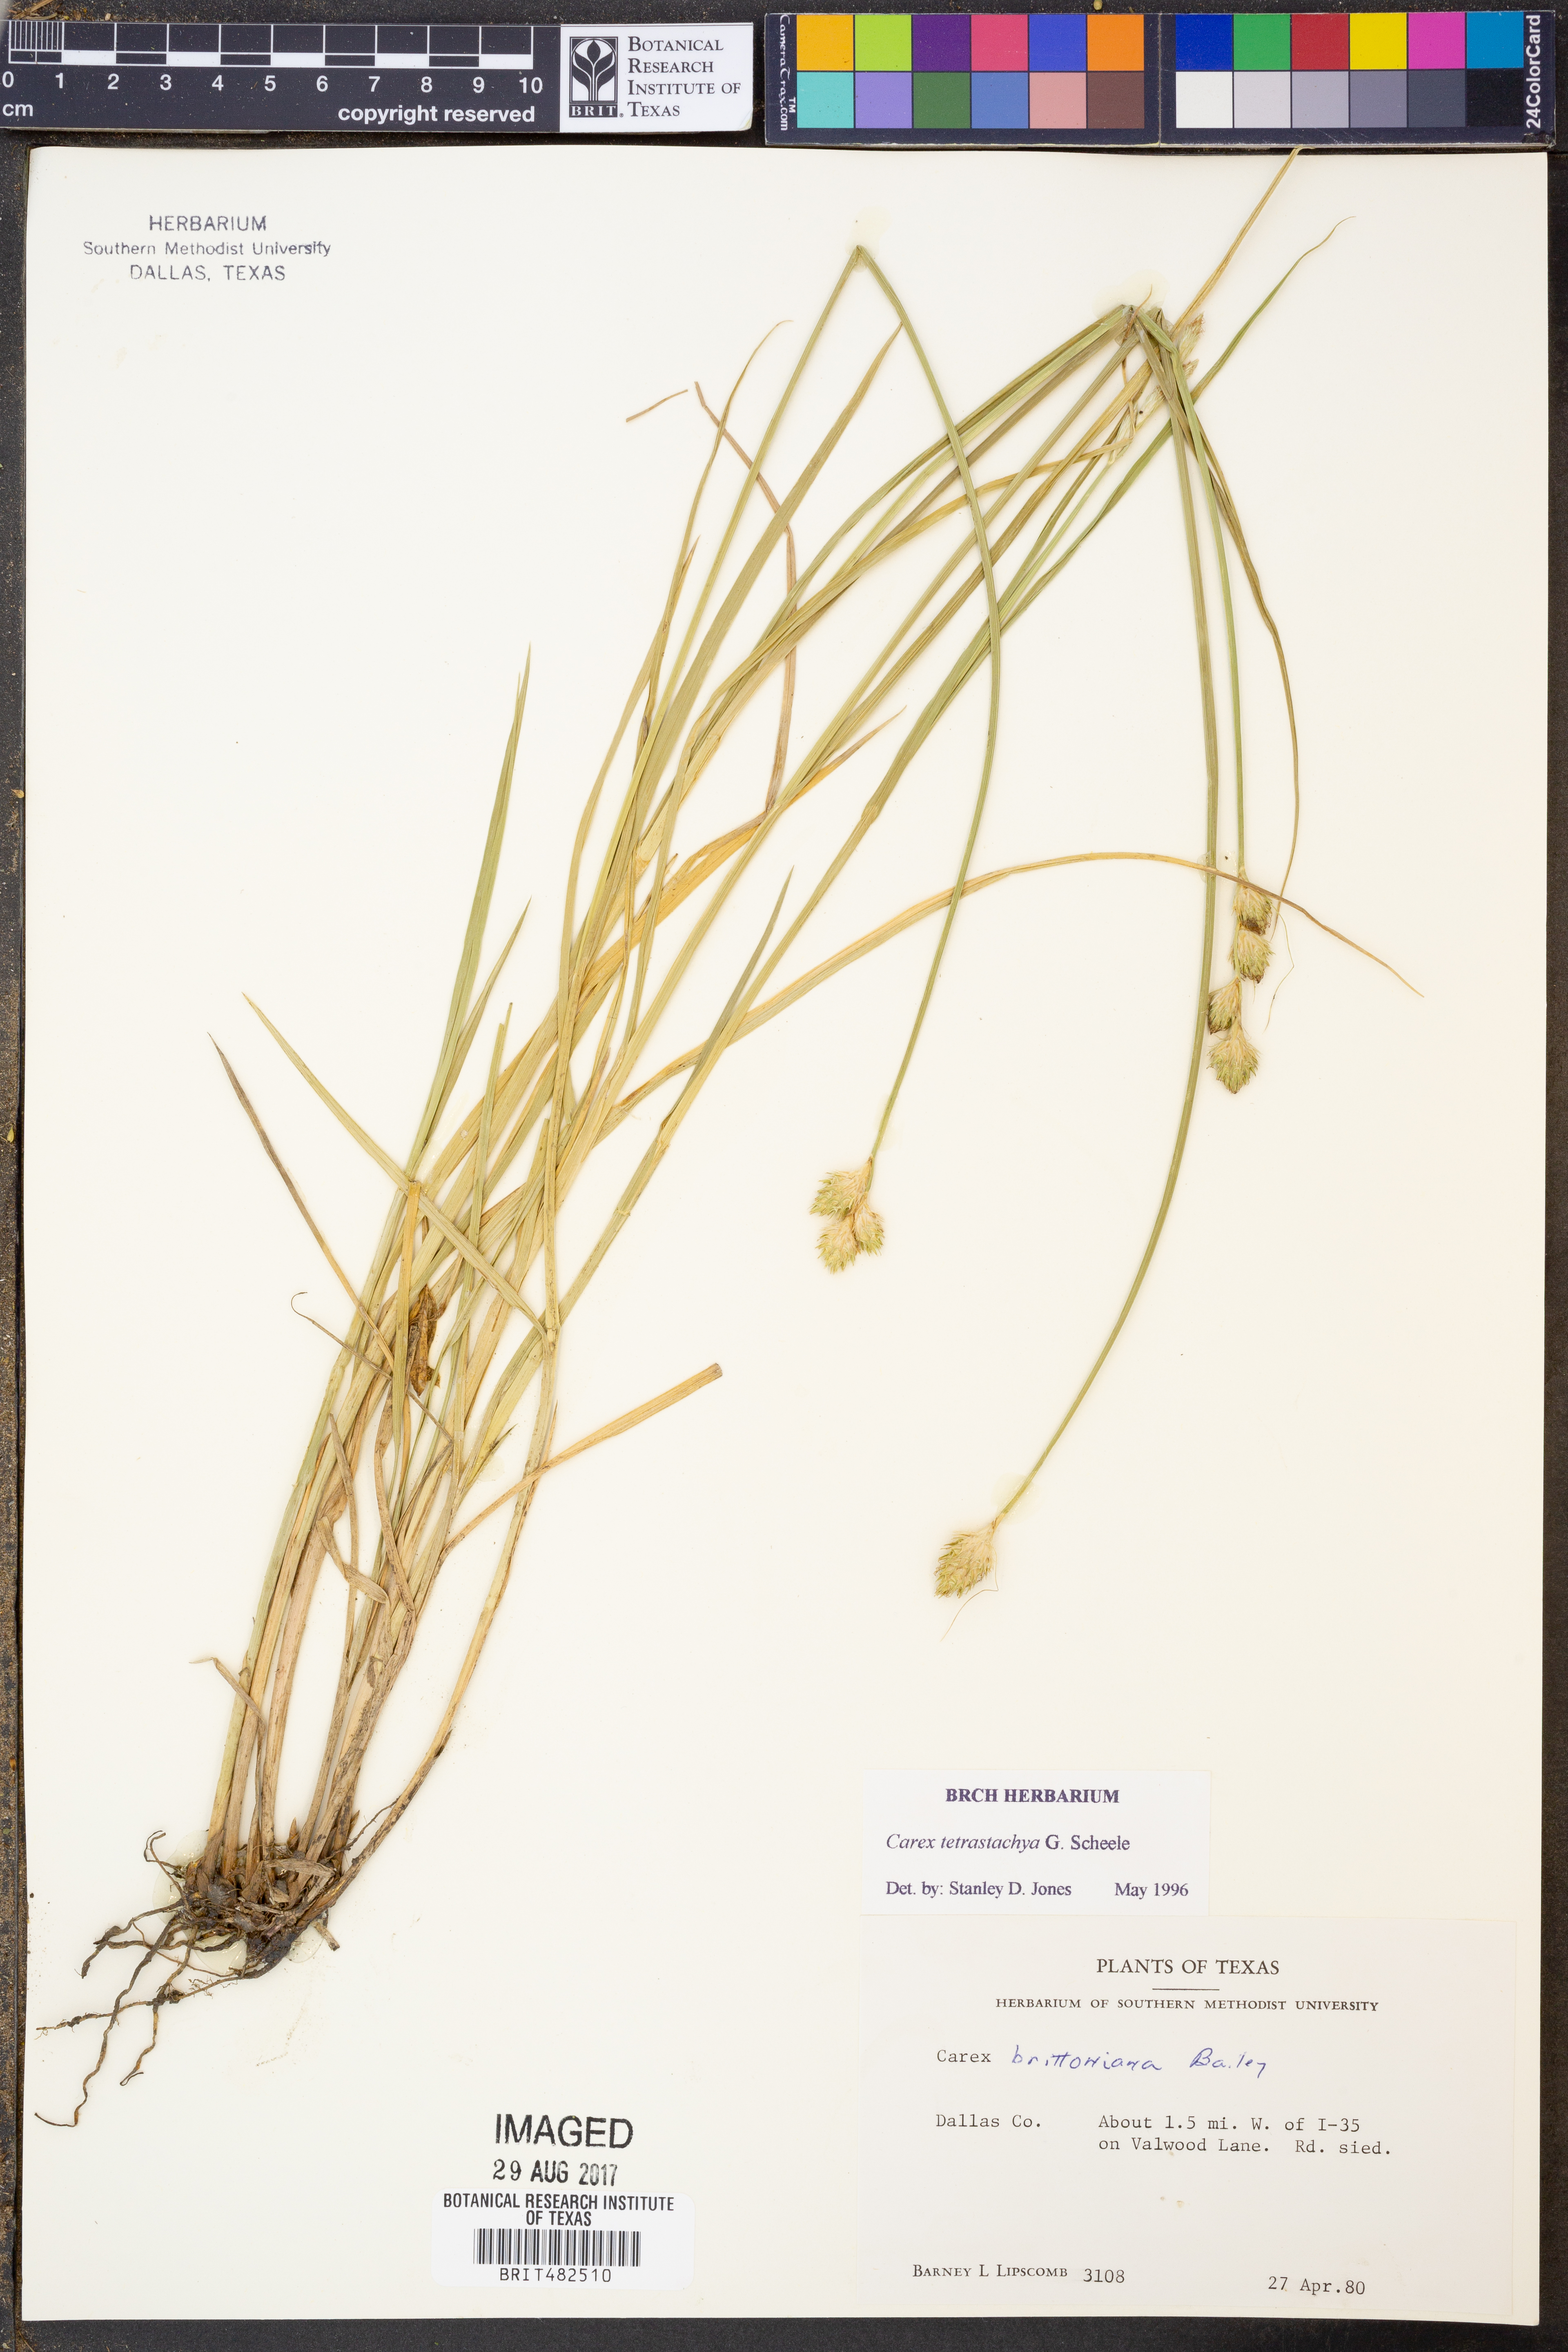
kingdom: Plantae
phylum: Tracheophyta
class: Liliopsida
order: Poales
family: Cyperaceae
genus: Carex
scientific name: Carex tetrastachya
